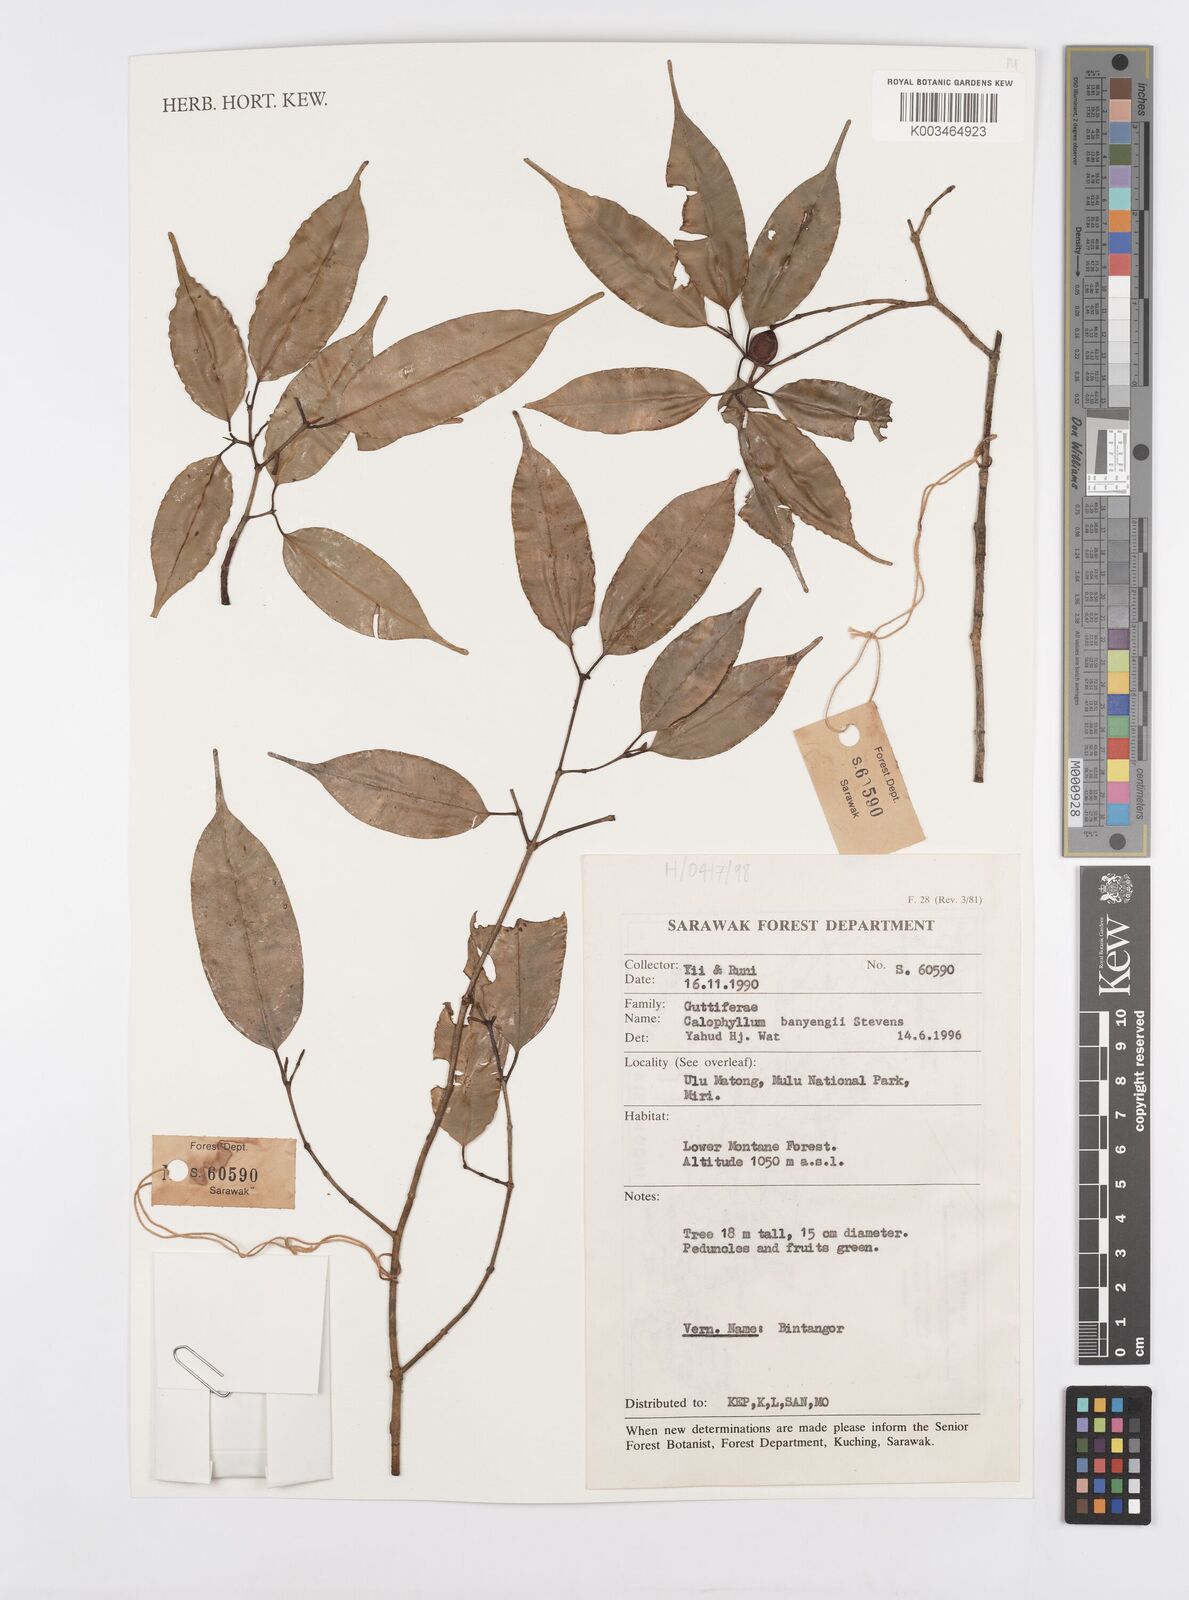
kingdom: Plantae
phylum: Tracheophyta
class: Magnoliopsida
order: Malpighiales
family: Calophyllaceae
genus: Calophyllum
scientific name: Calophyllum banyengii
